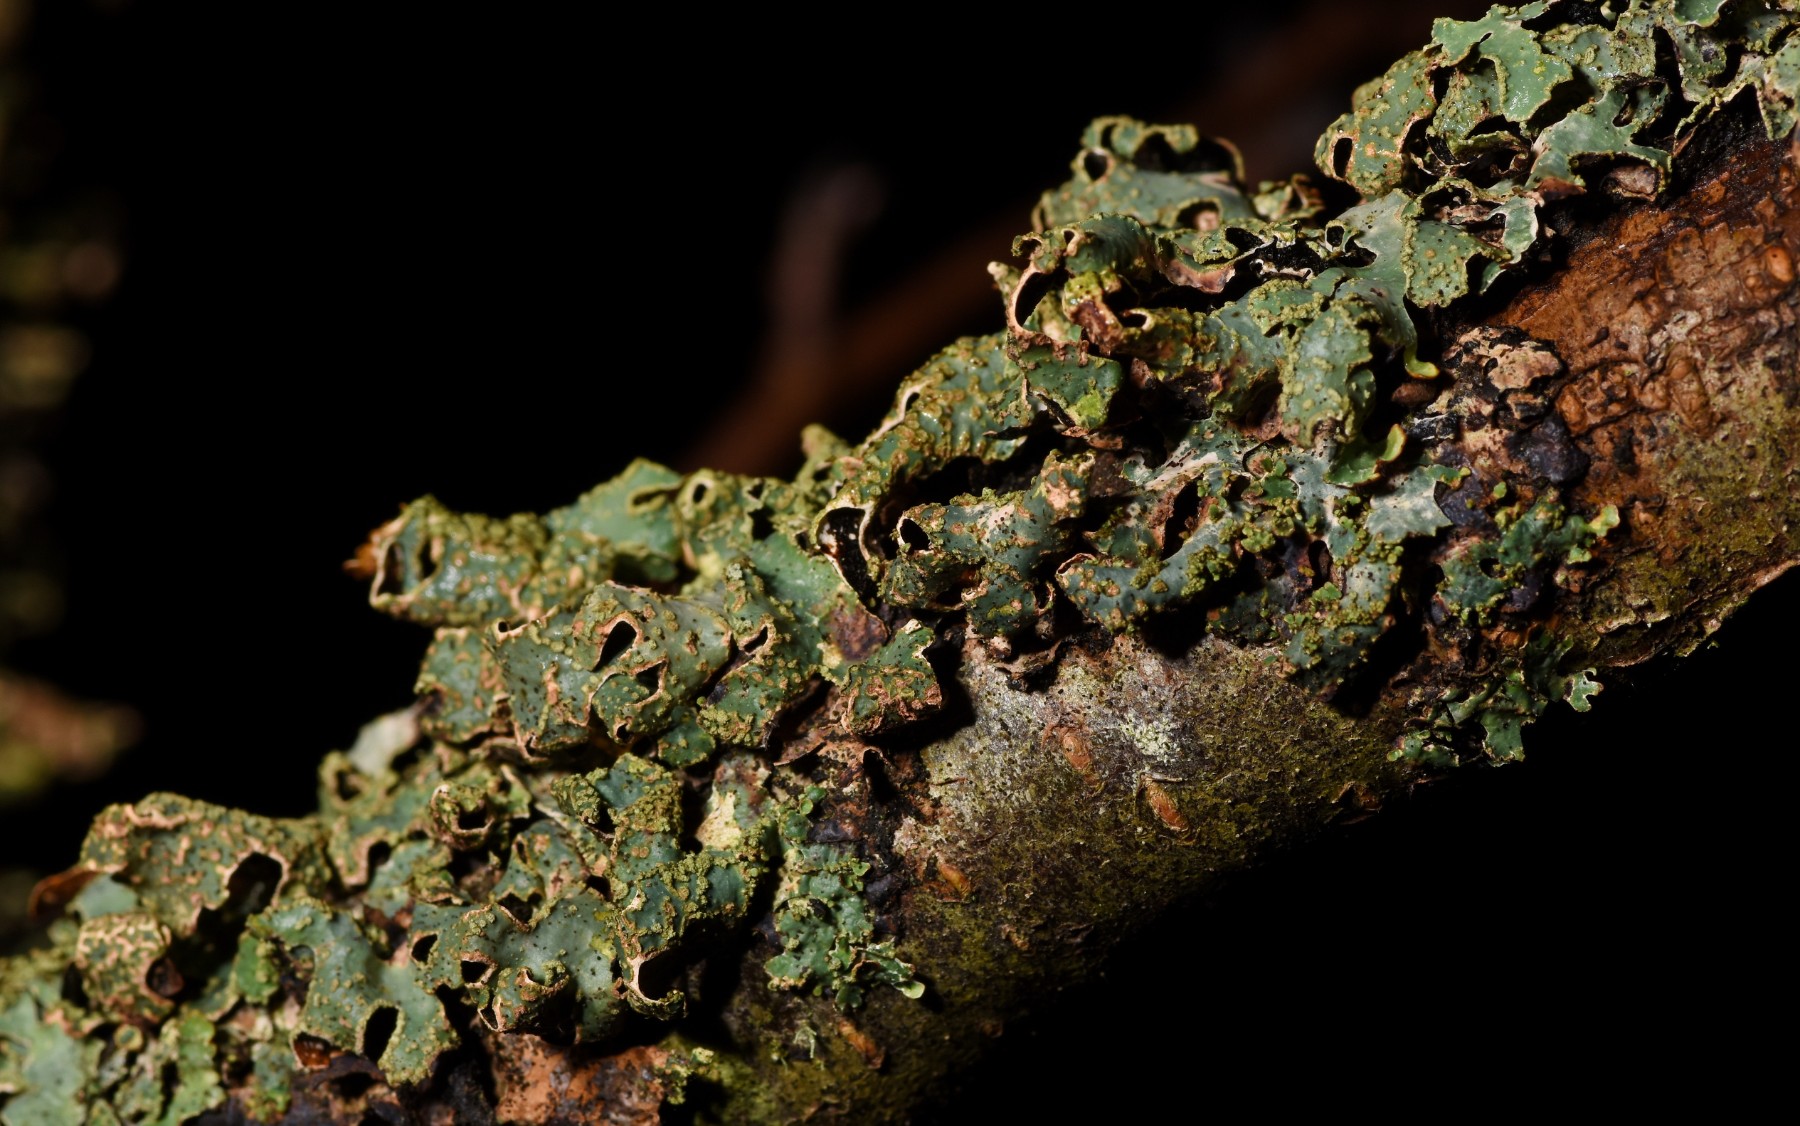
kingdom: Fungi
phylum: Ascomycota
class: Lecanoromycetes
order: Lecanorales
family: Parmeliaceae
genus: Parmelia
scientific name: Parmelia sulcata
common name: rynket skållav
